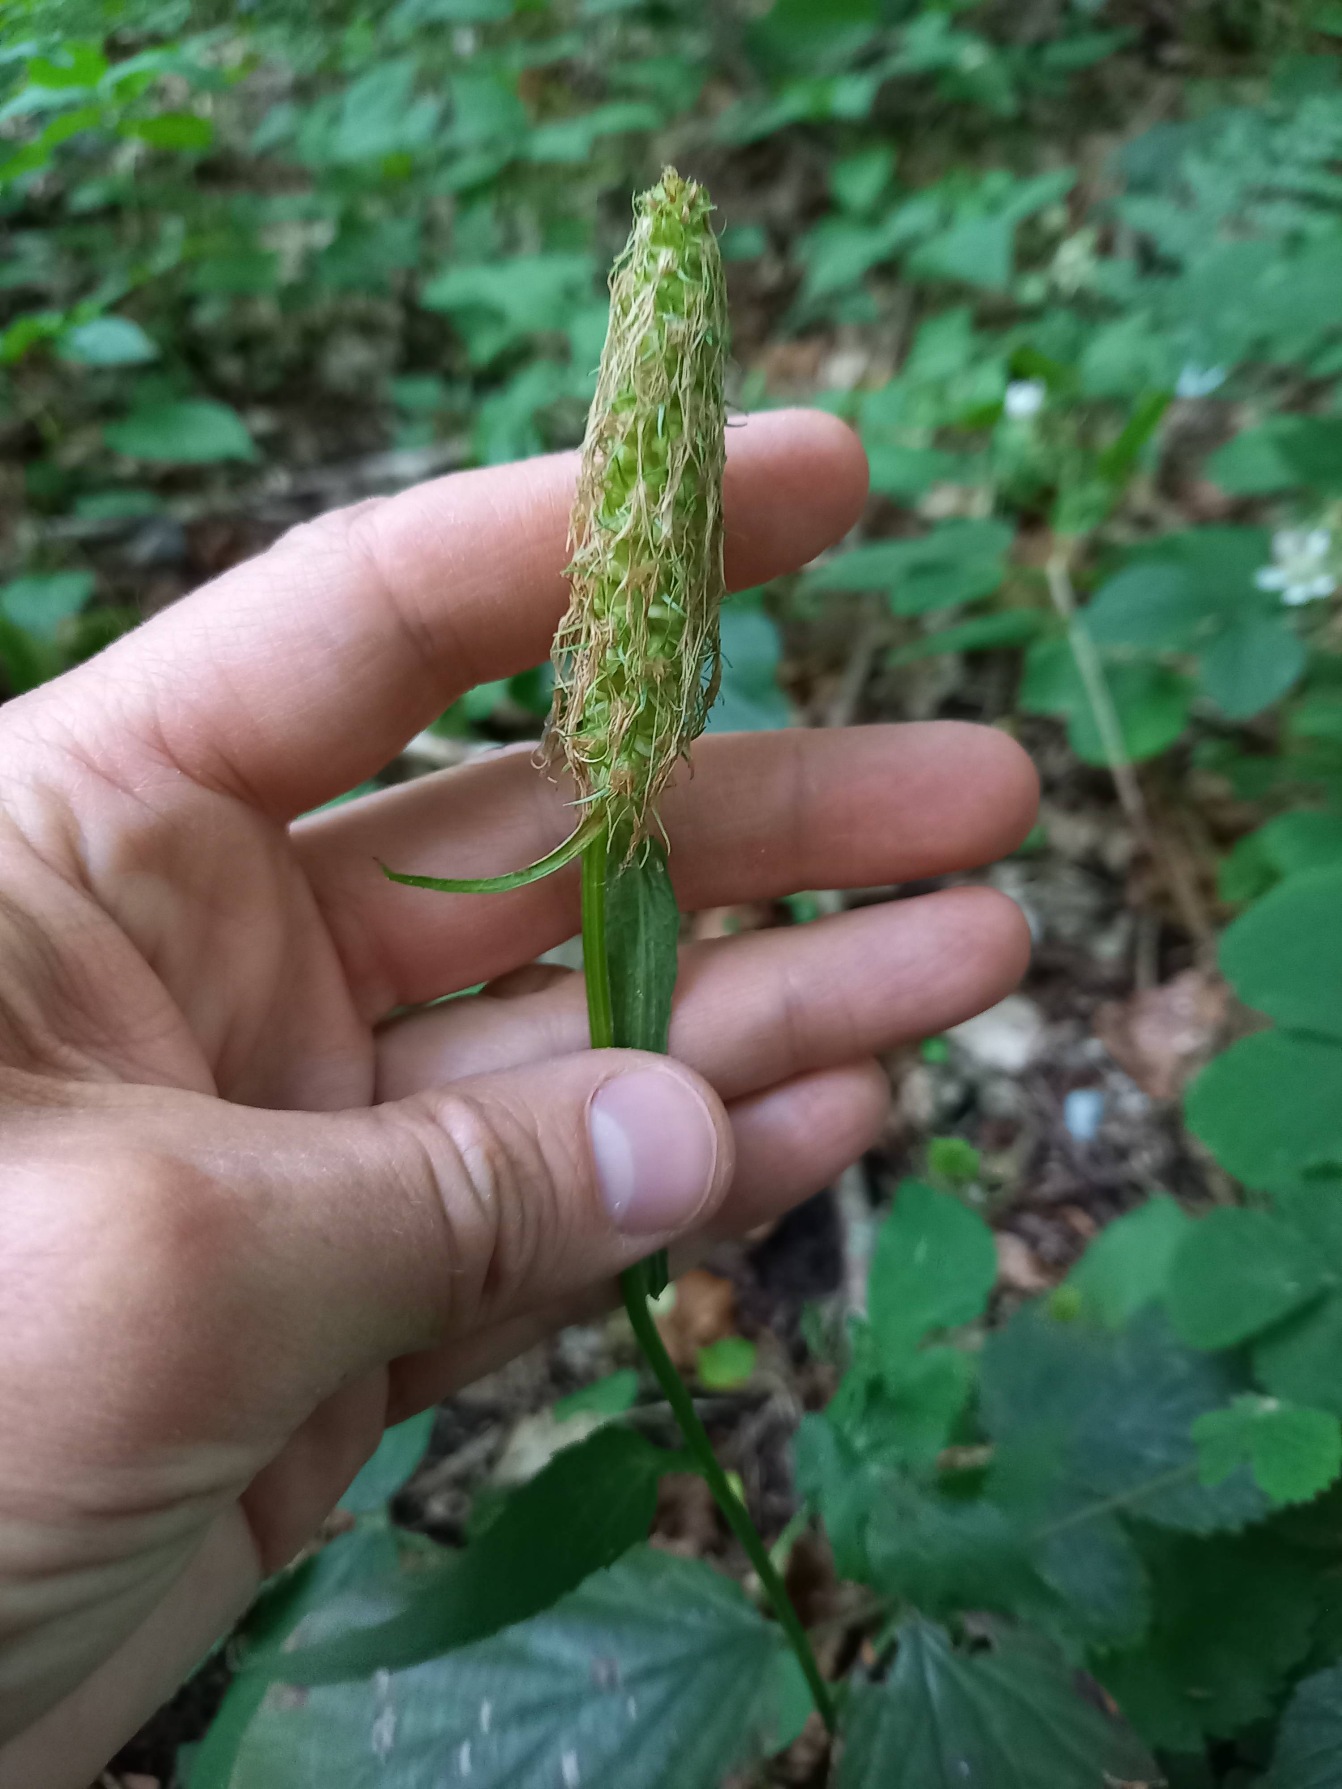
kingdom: Plantae
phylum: Tracheophyta
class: Magnoliopsida
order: Asterales
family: Campanulaceae
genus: Phyteuma
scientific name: Phyteuma spicatum
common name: Aks-rapunsel
